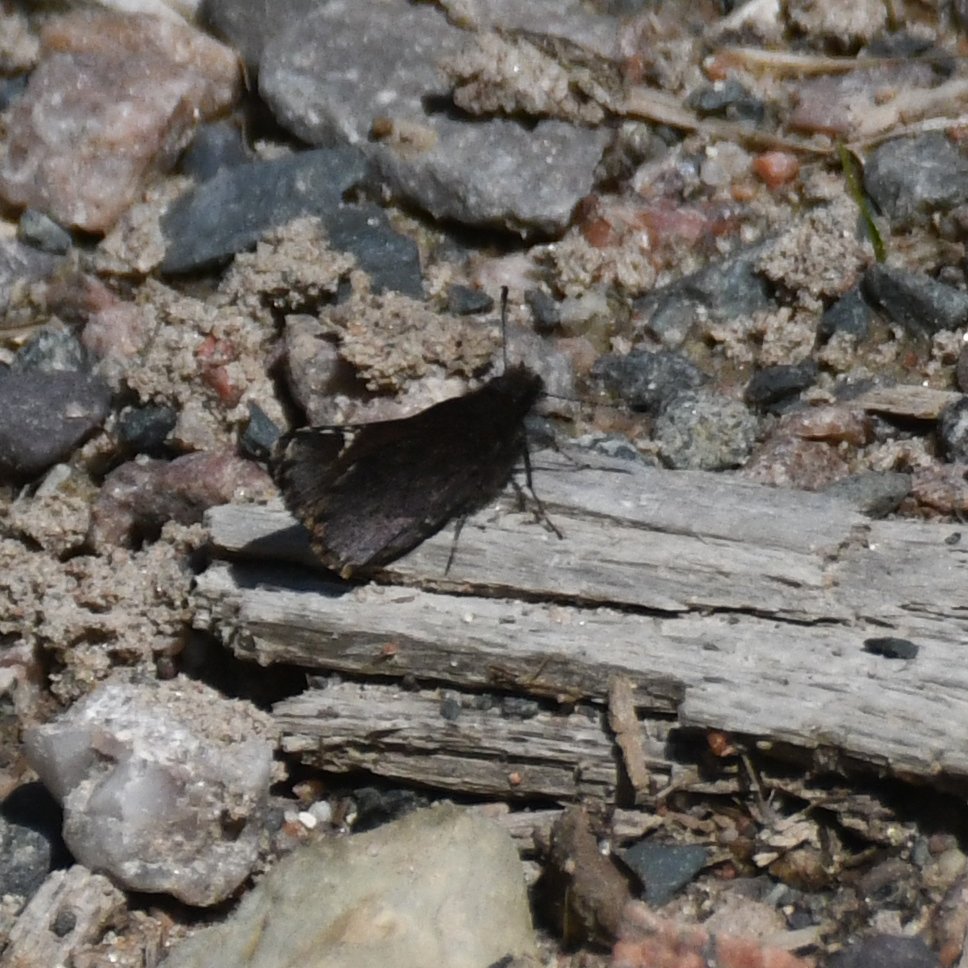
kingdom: Animalia
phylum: Arthropoda
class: Insecta
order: Lepidoptera
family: Hesperiidae
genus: Mastor
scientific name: Mastor vialis
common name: Common Roadside-Skipper
